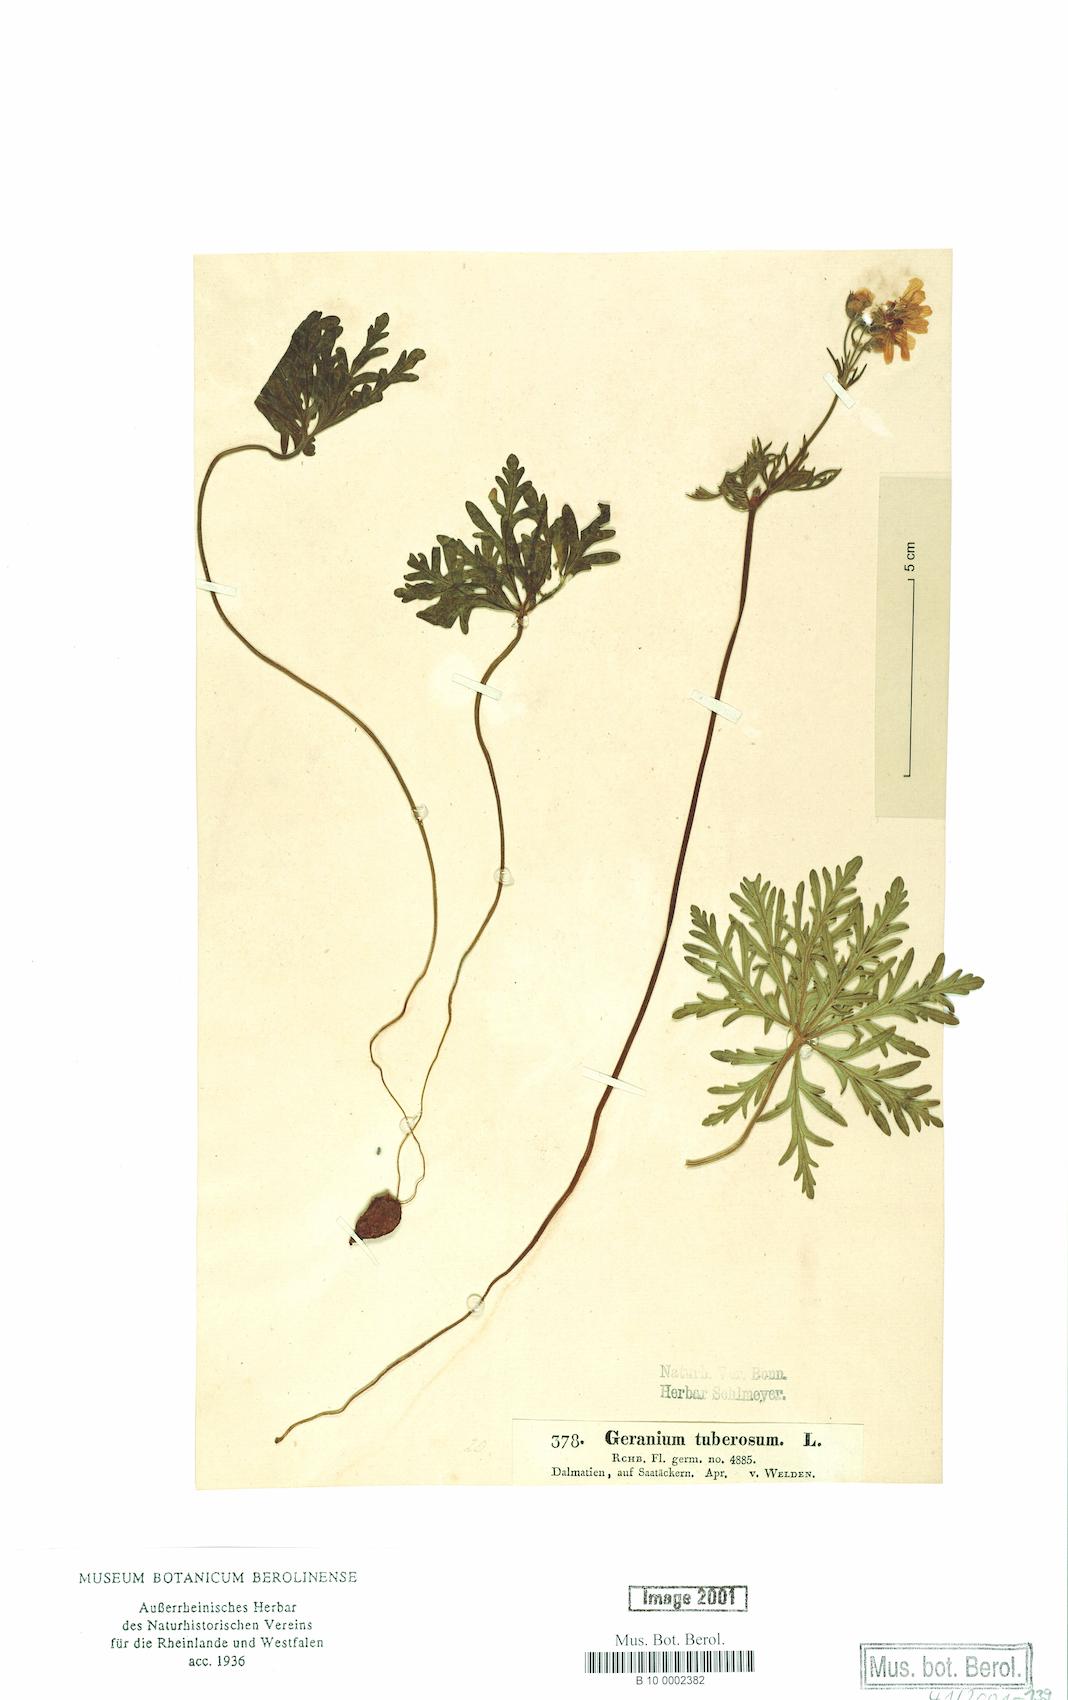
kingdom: Plantae
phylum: Tracheophyta
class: Magnoliopsida
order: Geraniales
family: Geraniaceae
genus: Geranium
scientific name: Geranium tuberosum
